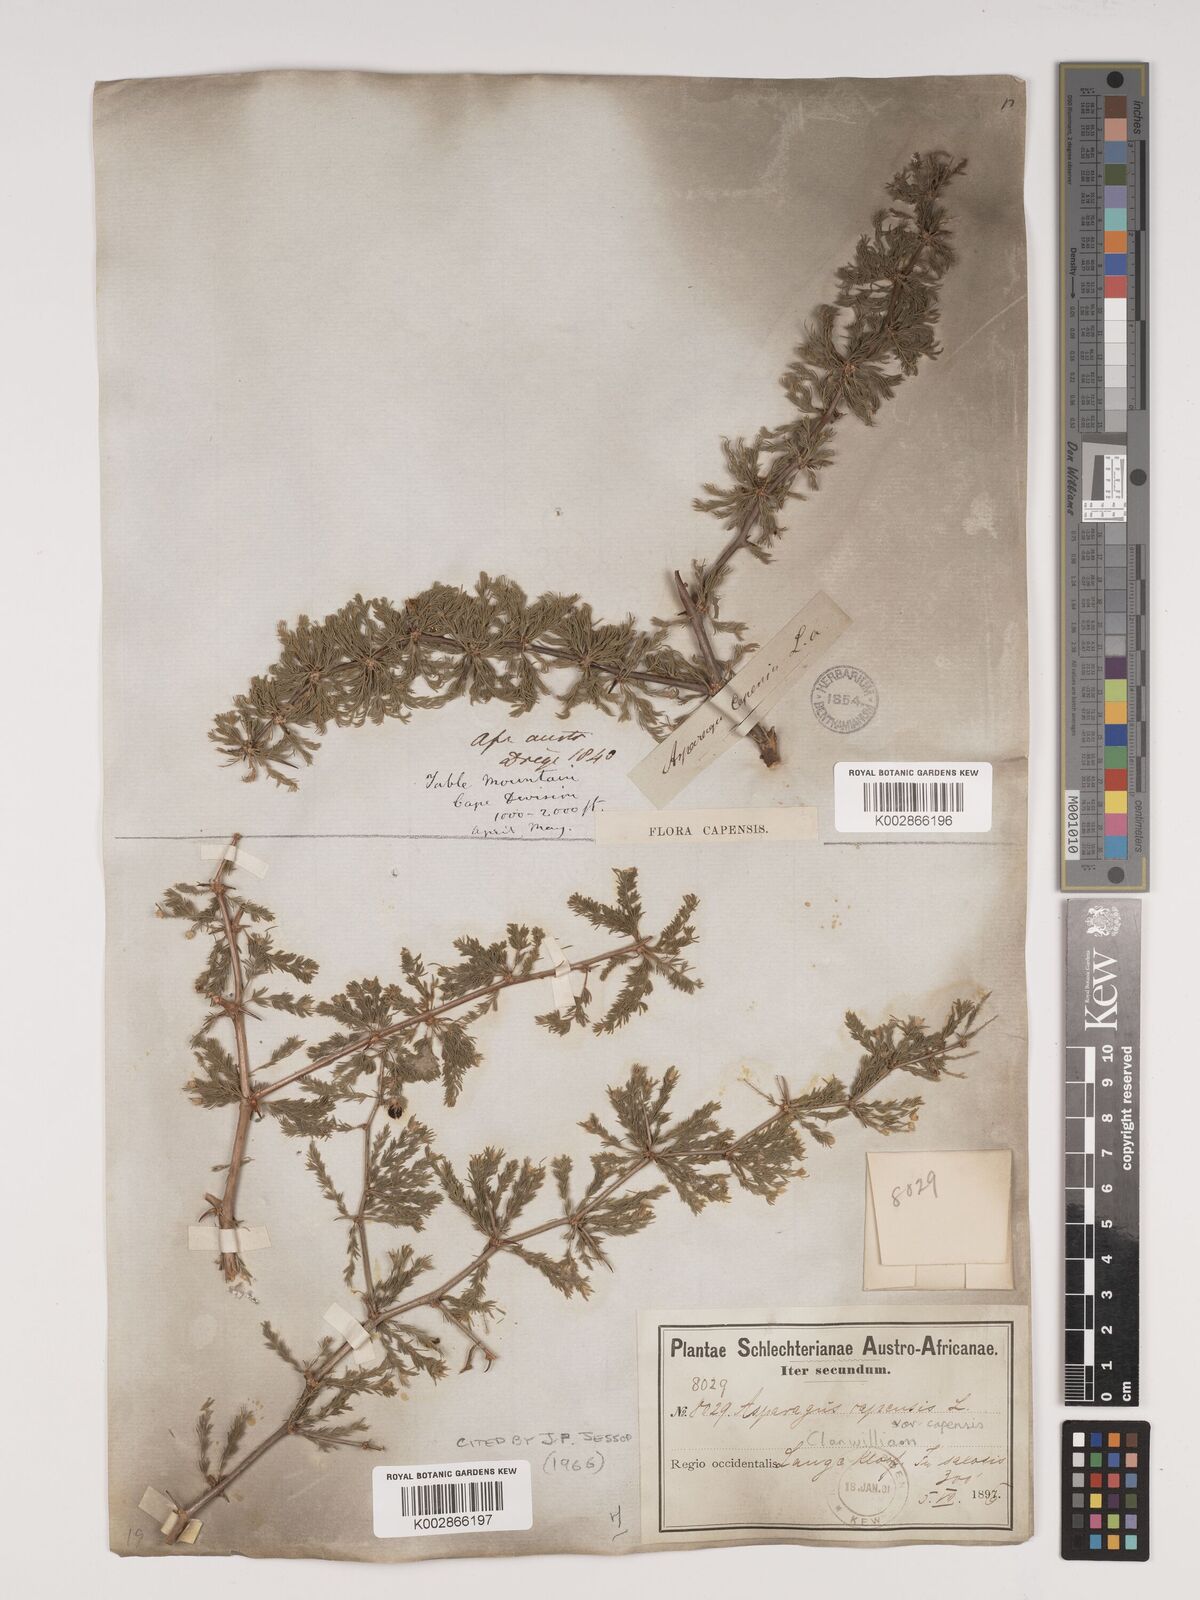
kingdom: Plantae
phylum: Tracheophyta
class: Liliopsida
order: Asparagales
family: Asparagaceae
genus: Asparagus
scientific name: Asparagus capensis
